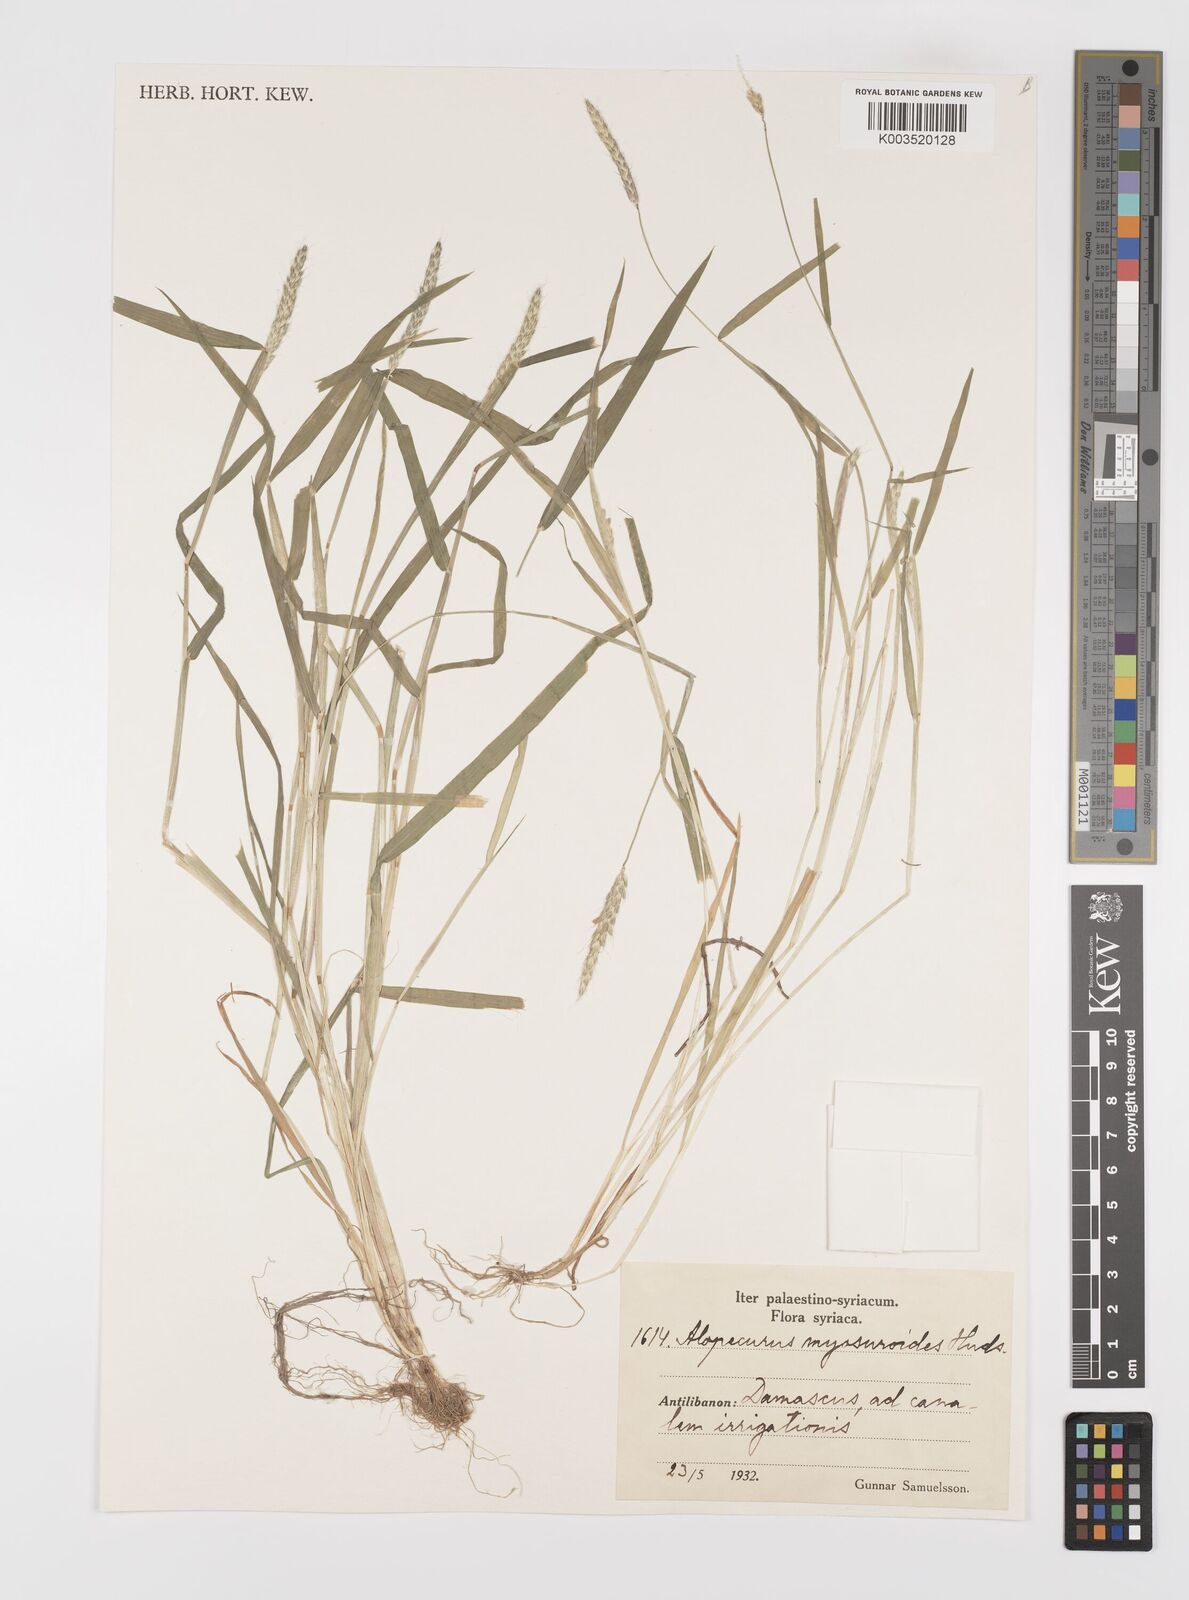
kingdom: Plantae
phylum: Tracheophyta
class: Liliopsida
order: Poales
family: Poaceae
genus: Alopecurus
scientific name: Alopecurus myosuroides
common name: Black-grass
